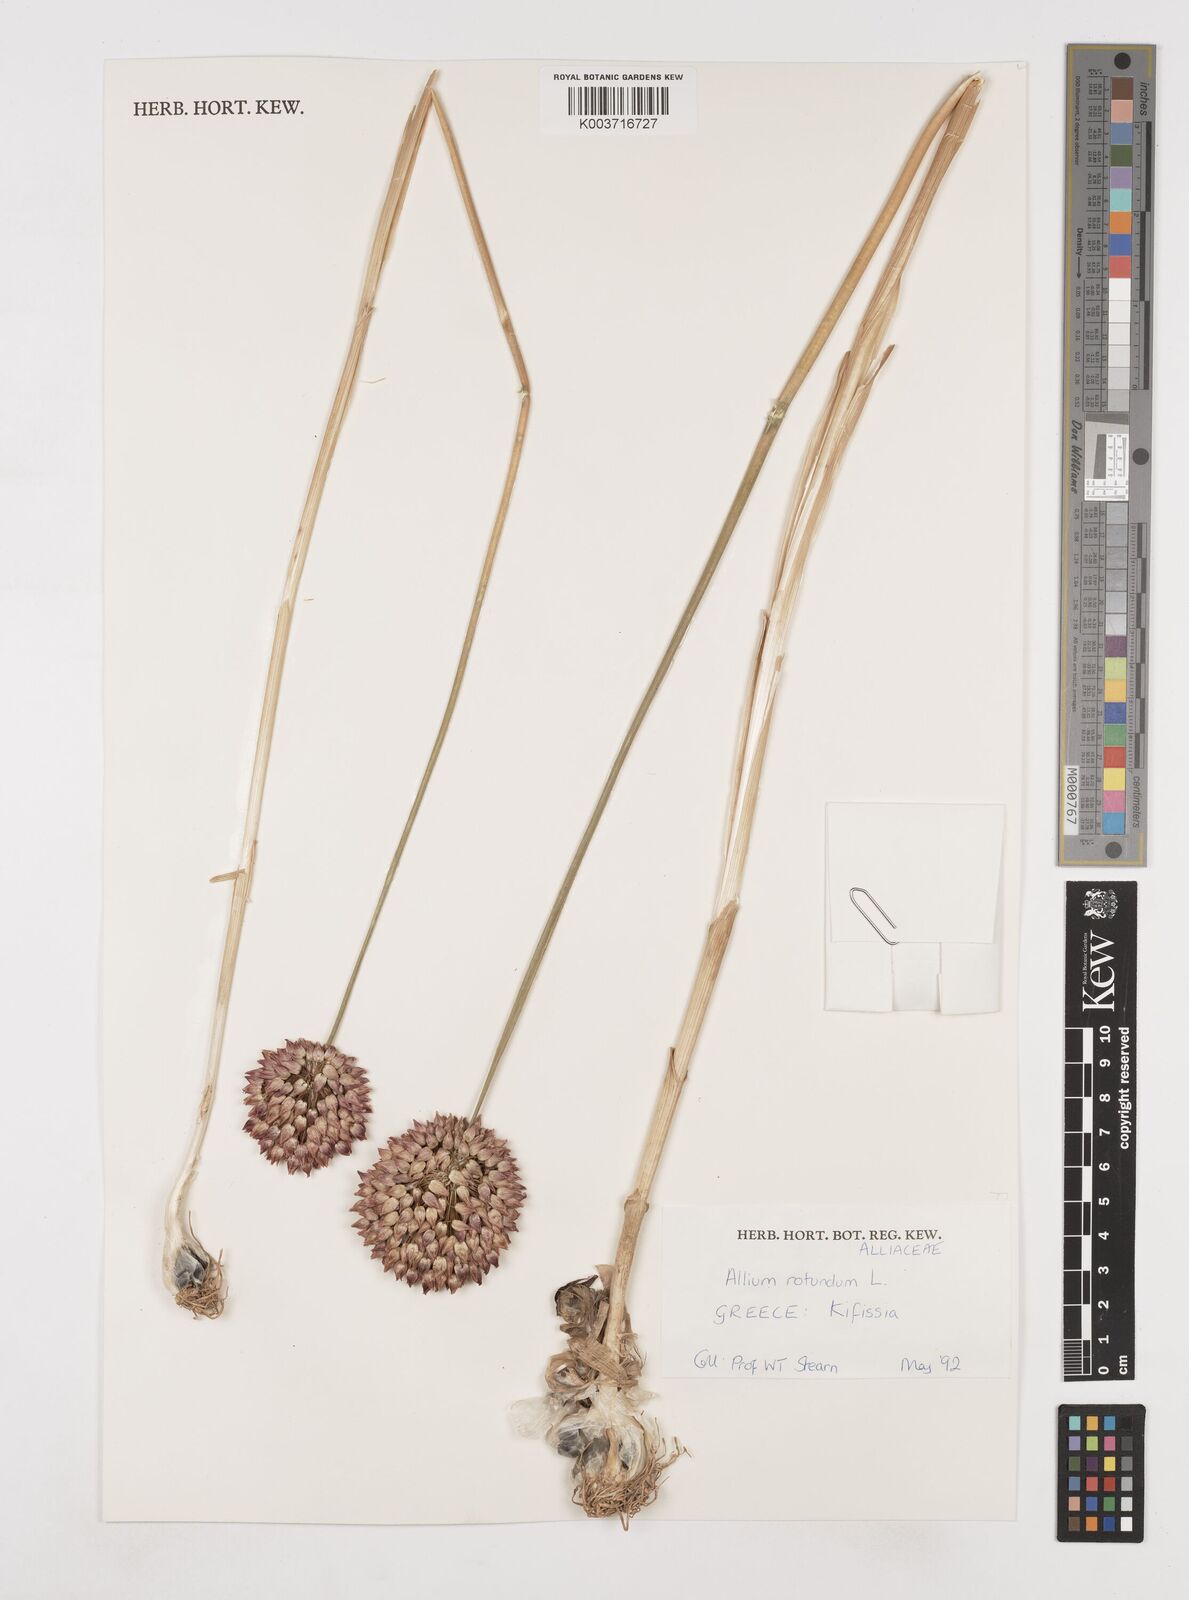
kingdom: Plantae
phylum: Tracheophyta
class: Liliopsida
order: Asparagales
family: Amaryllidaceae
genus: Allium
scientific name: Allium rotundum
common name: Sand leek
